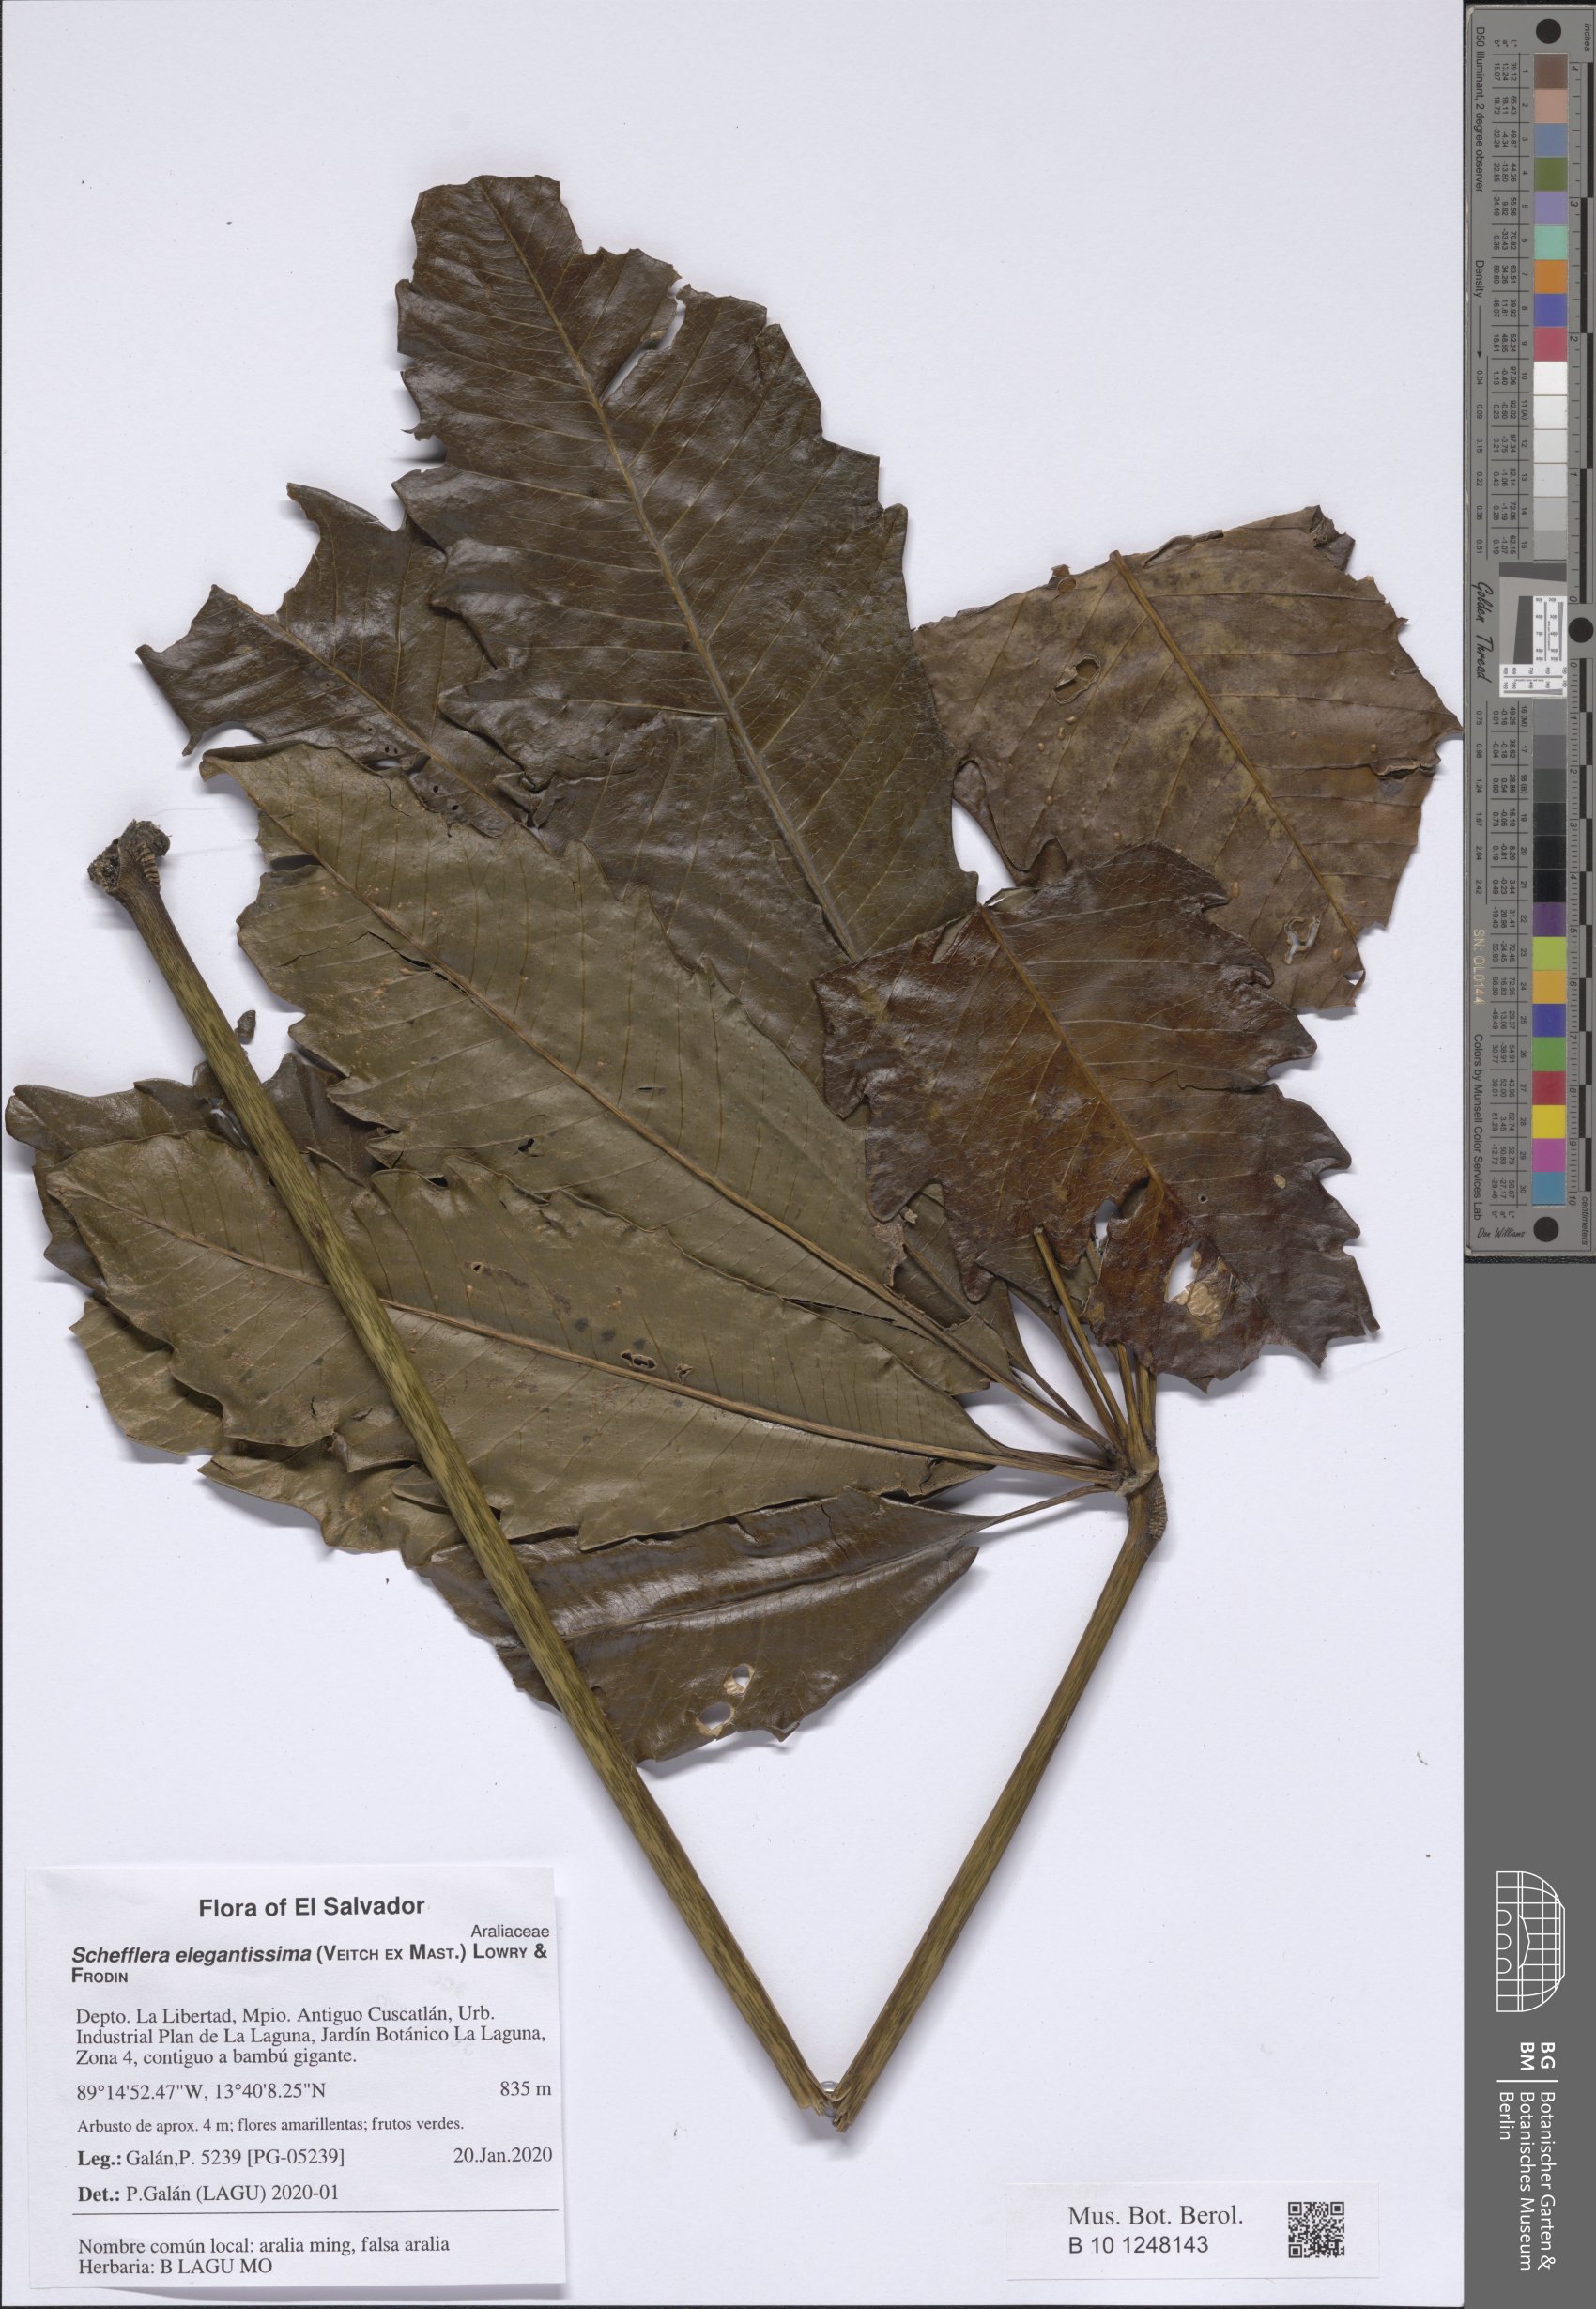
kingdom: Plantae
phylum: Tracheophyta
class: Magnoliopsida
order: Apiales
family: Araliaceae
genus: Plerandra
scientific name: Plerandra elegantissima
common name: False aralia
